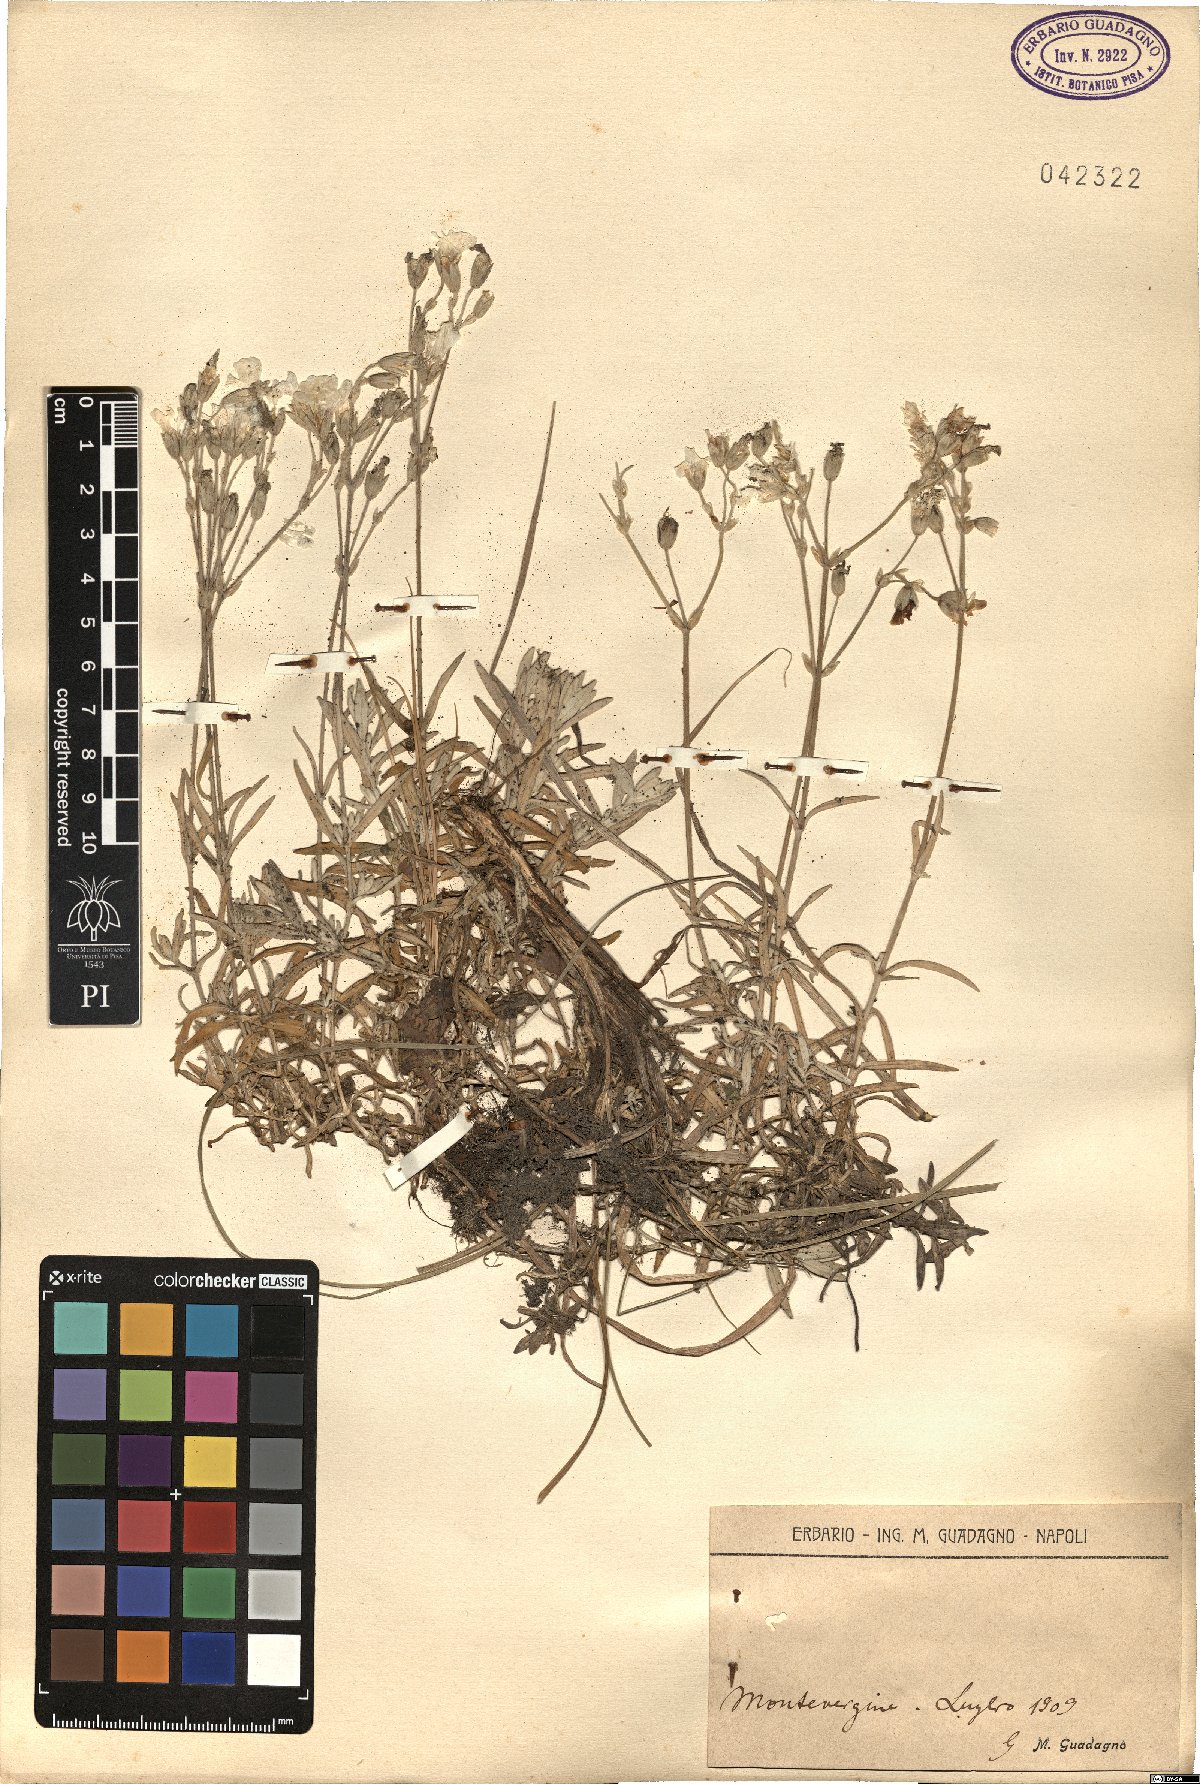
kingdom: Plantae
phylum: Tracheophyta
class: Magnoliopsida
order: Caryophyllales
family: Caryophyllaceae
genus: Cerastium
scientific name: Cerastium
